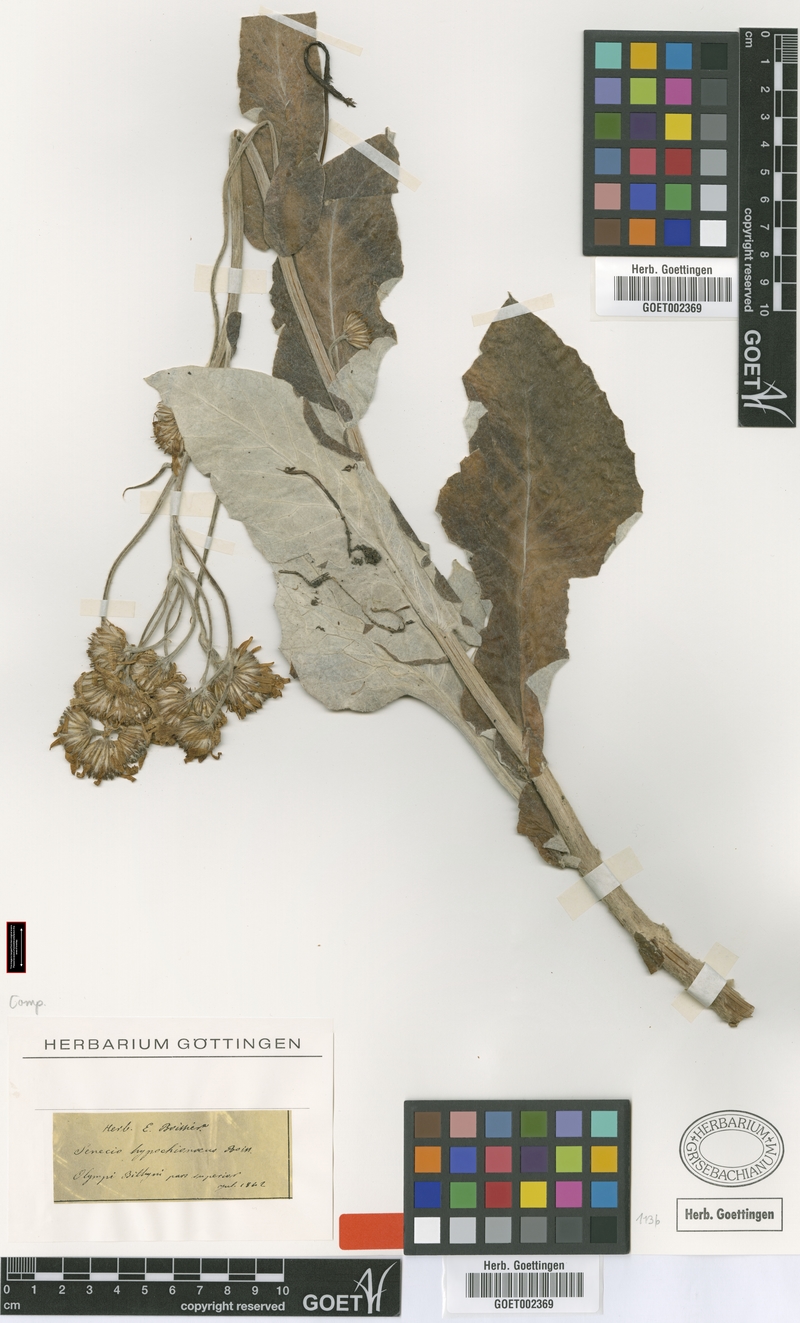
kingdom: Plantae
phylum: Tracheophyta
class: Magnoliopsida
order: Asterales
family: Asteraceae
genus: Turanecio
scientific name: Turanecio hypochionaeus
